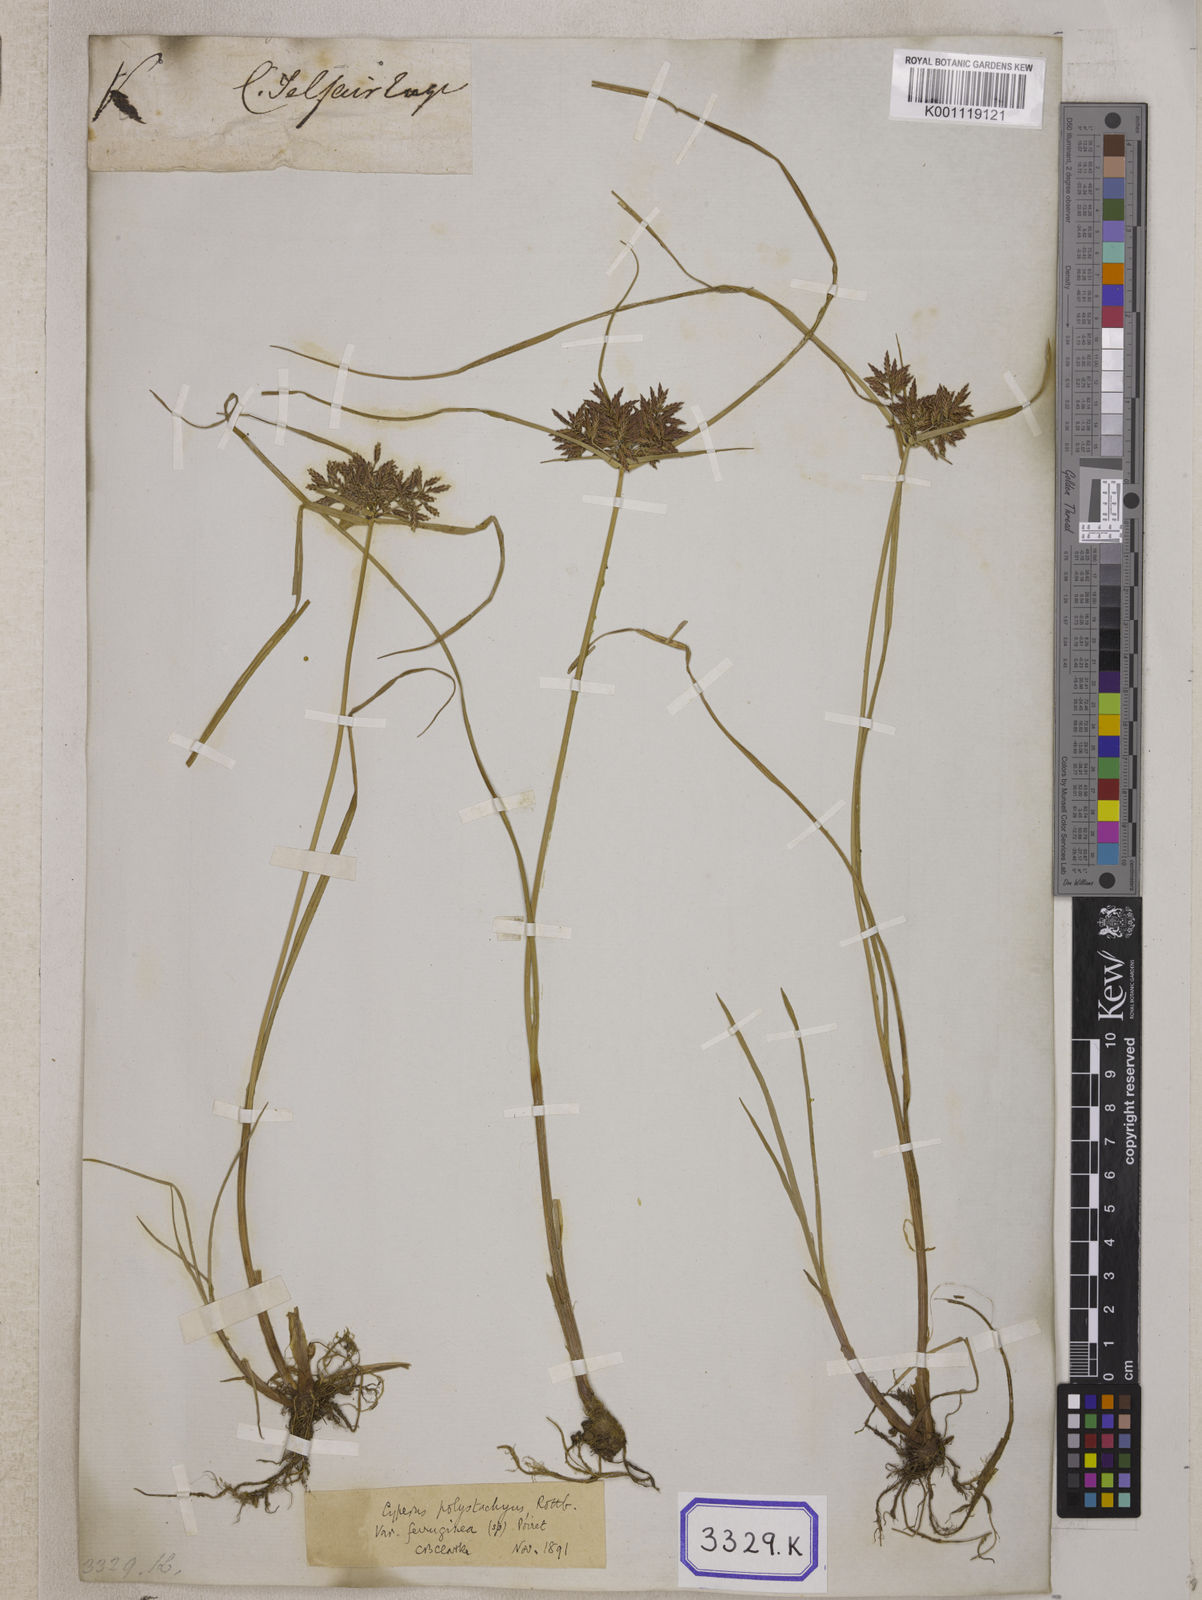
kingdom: Plantae
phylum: Tracheophyta
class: Liliopsida
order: Poales
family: Cyperaceae
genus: Cyperus
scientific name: Cyperus
